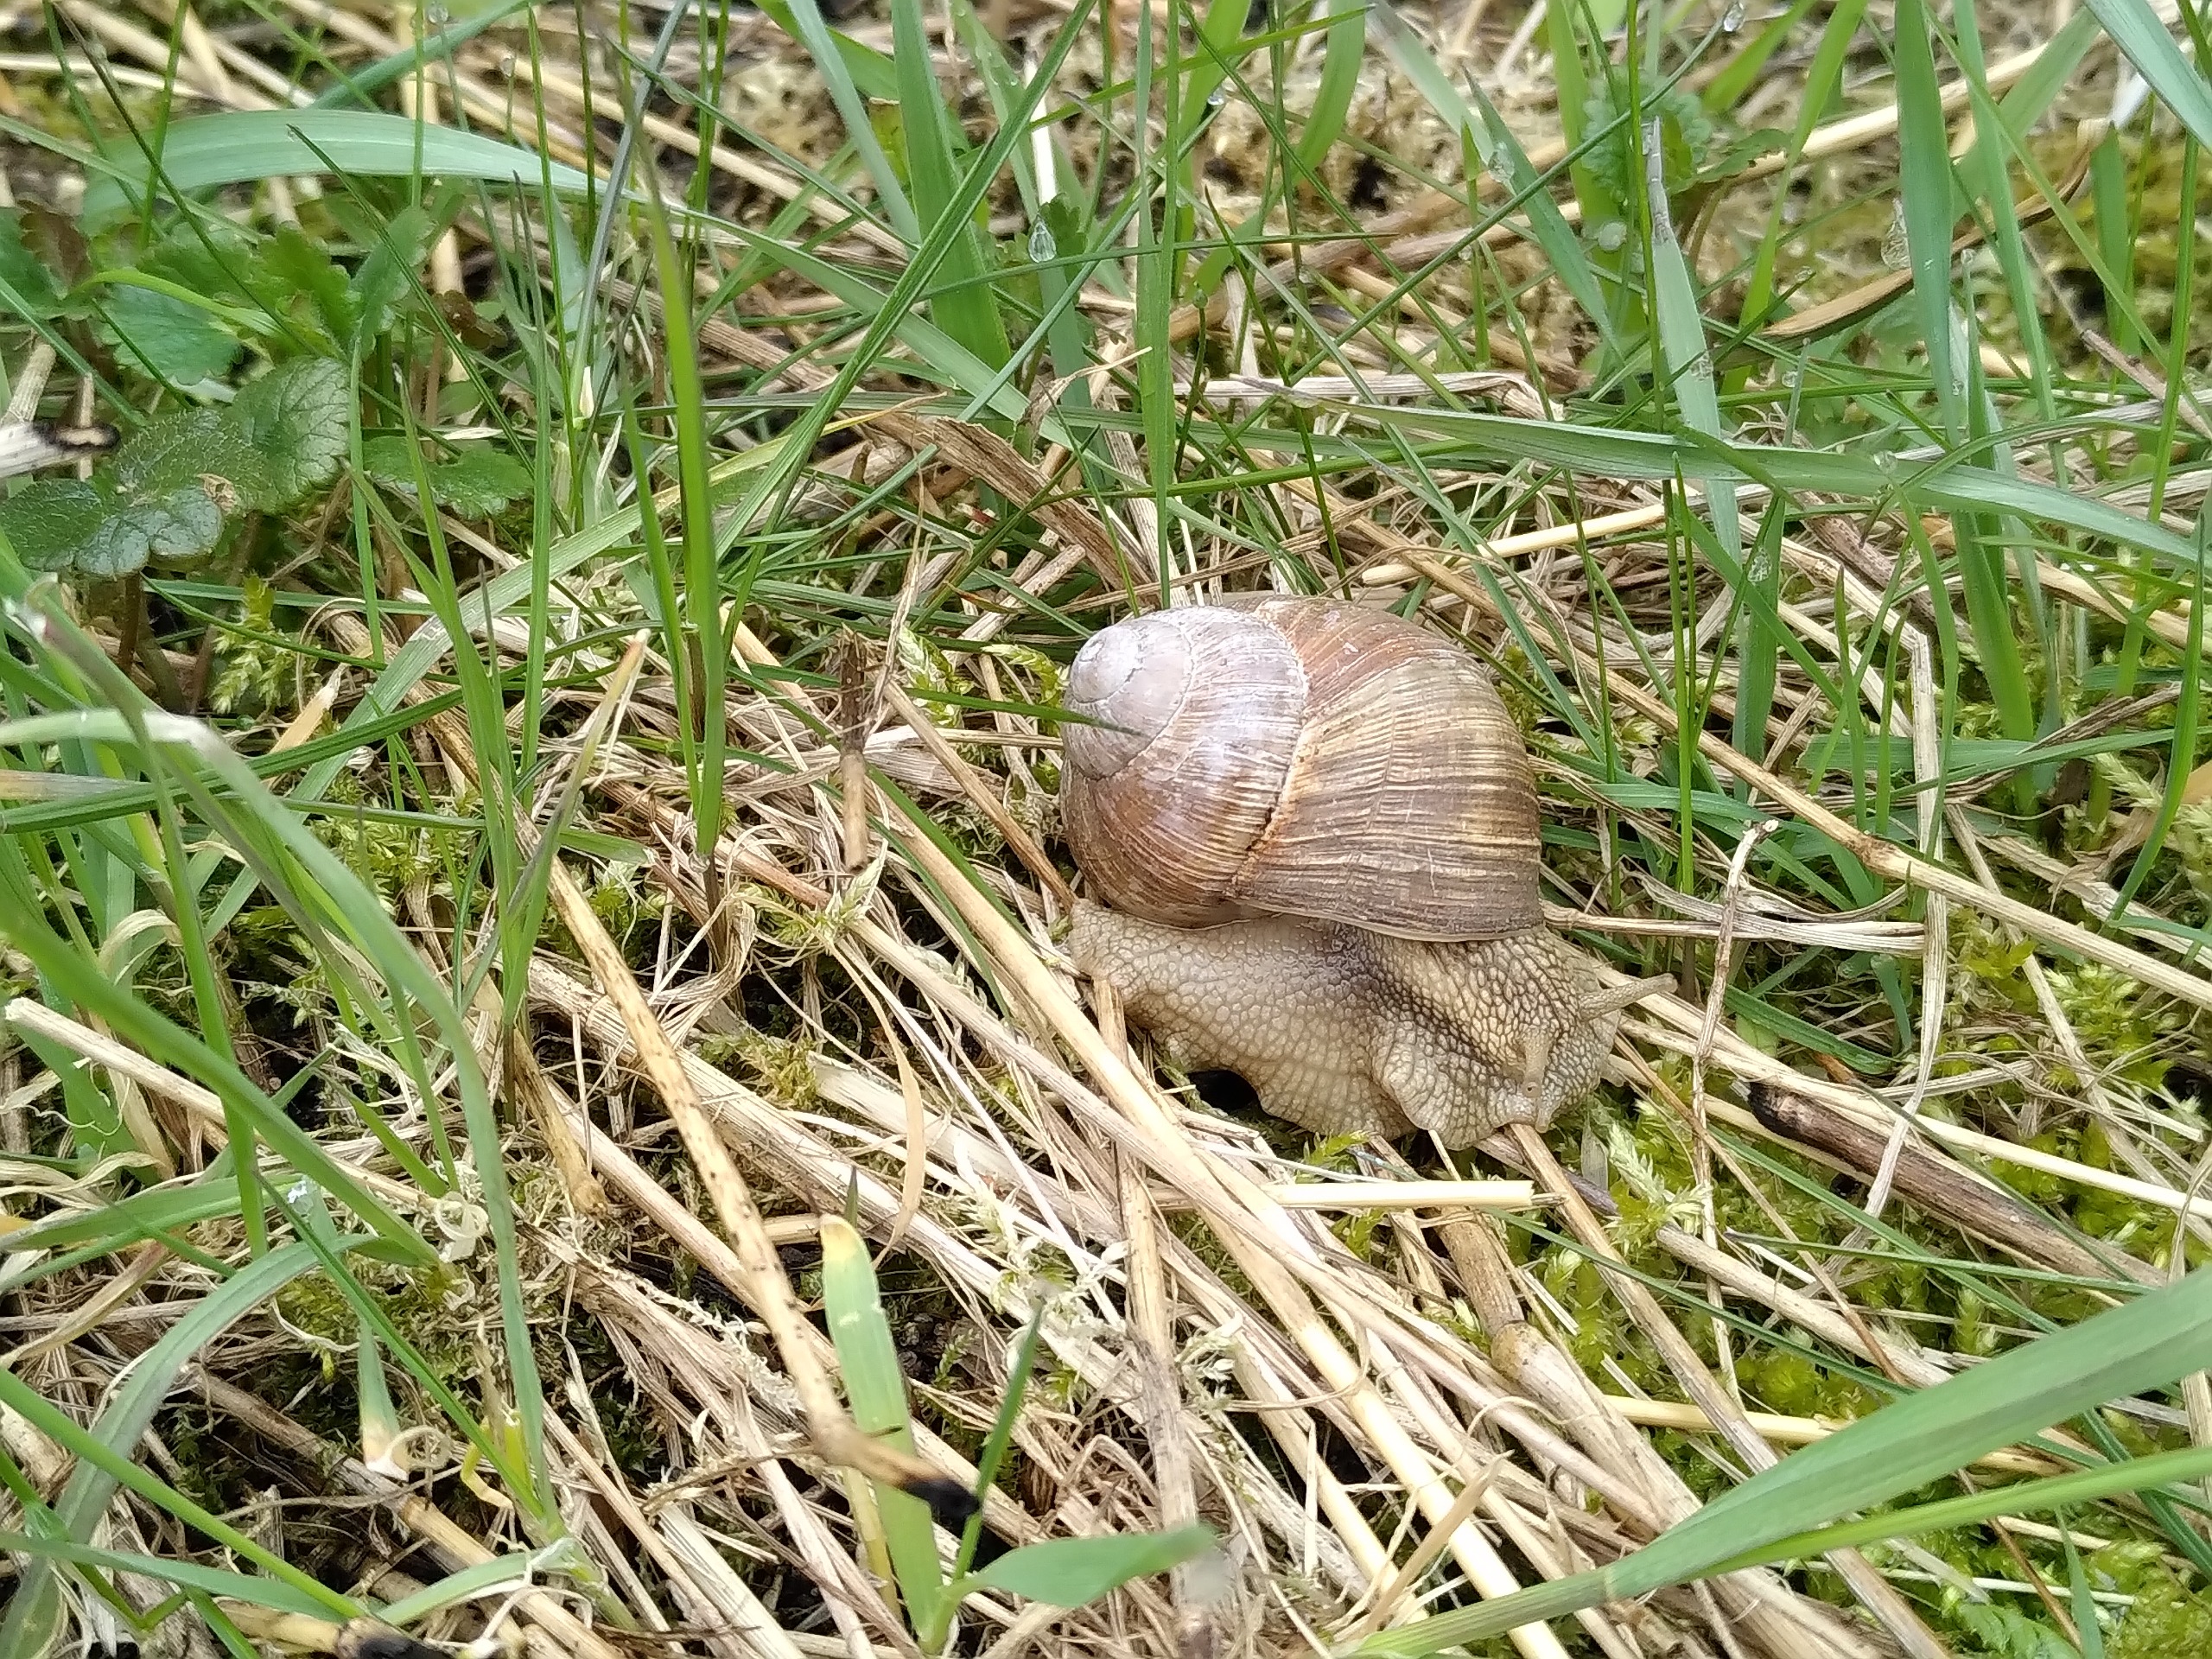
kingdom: Animalia
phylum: Mollusca
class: Gastropoda
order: Stylommatophora
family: Helicidae
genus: Helix
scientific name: Helix pomatia
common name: Vinbjergsnegl
